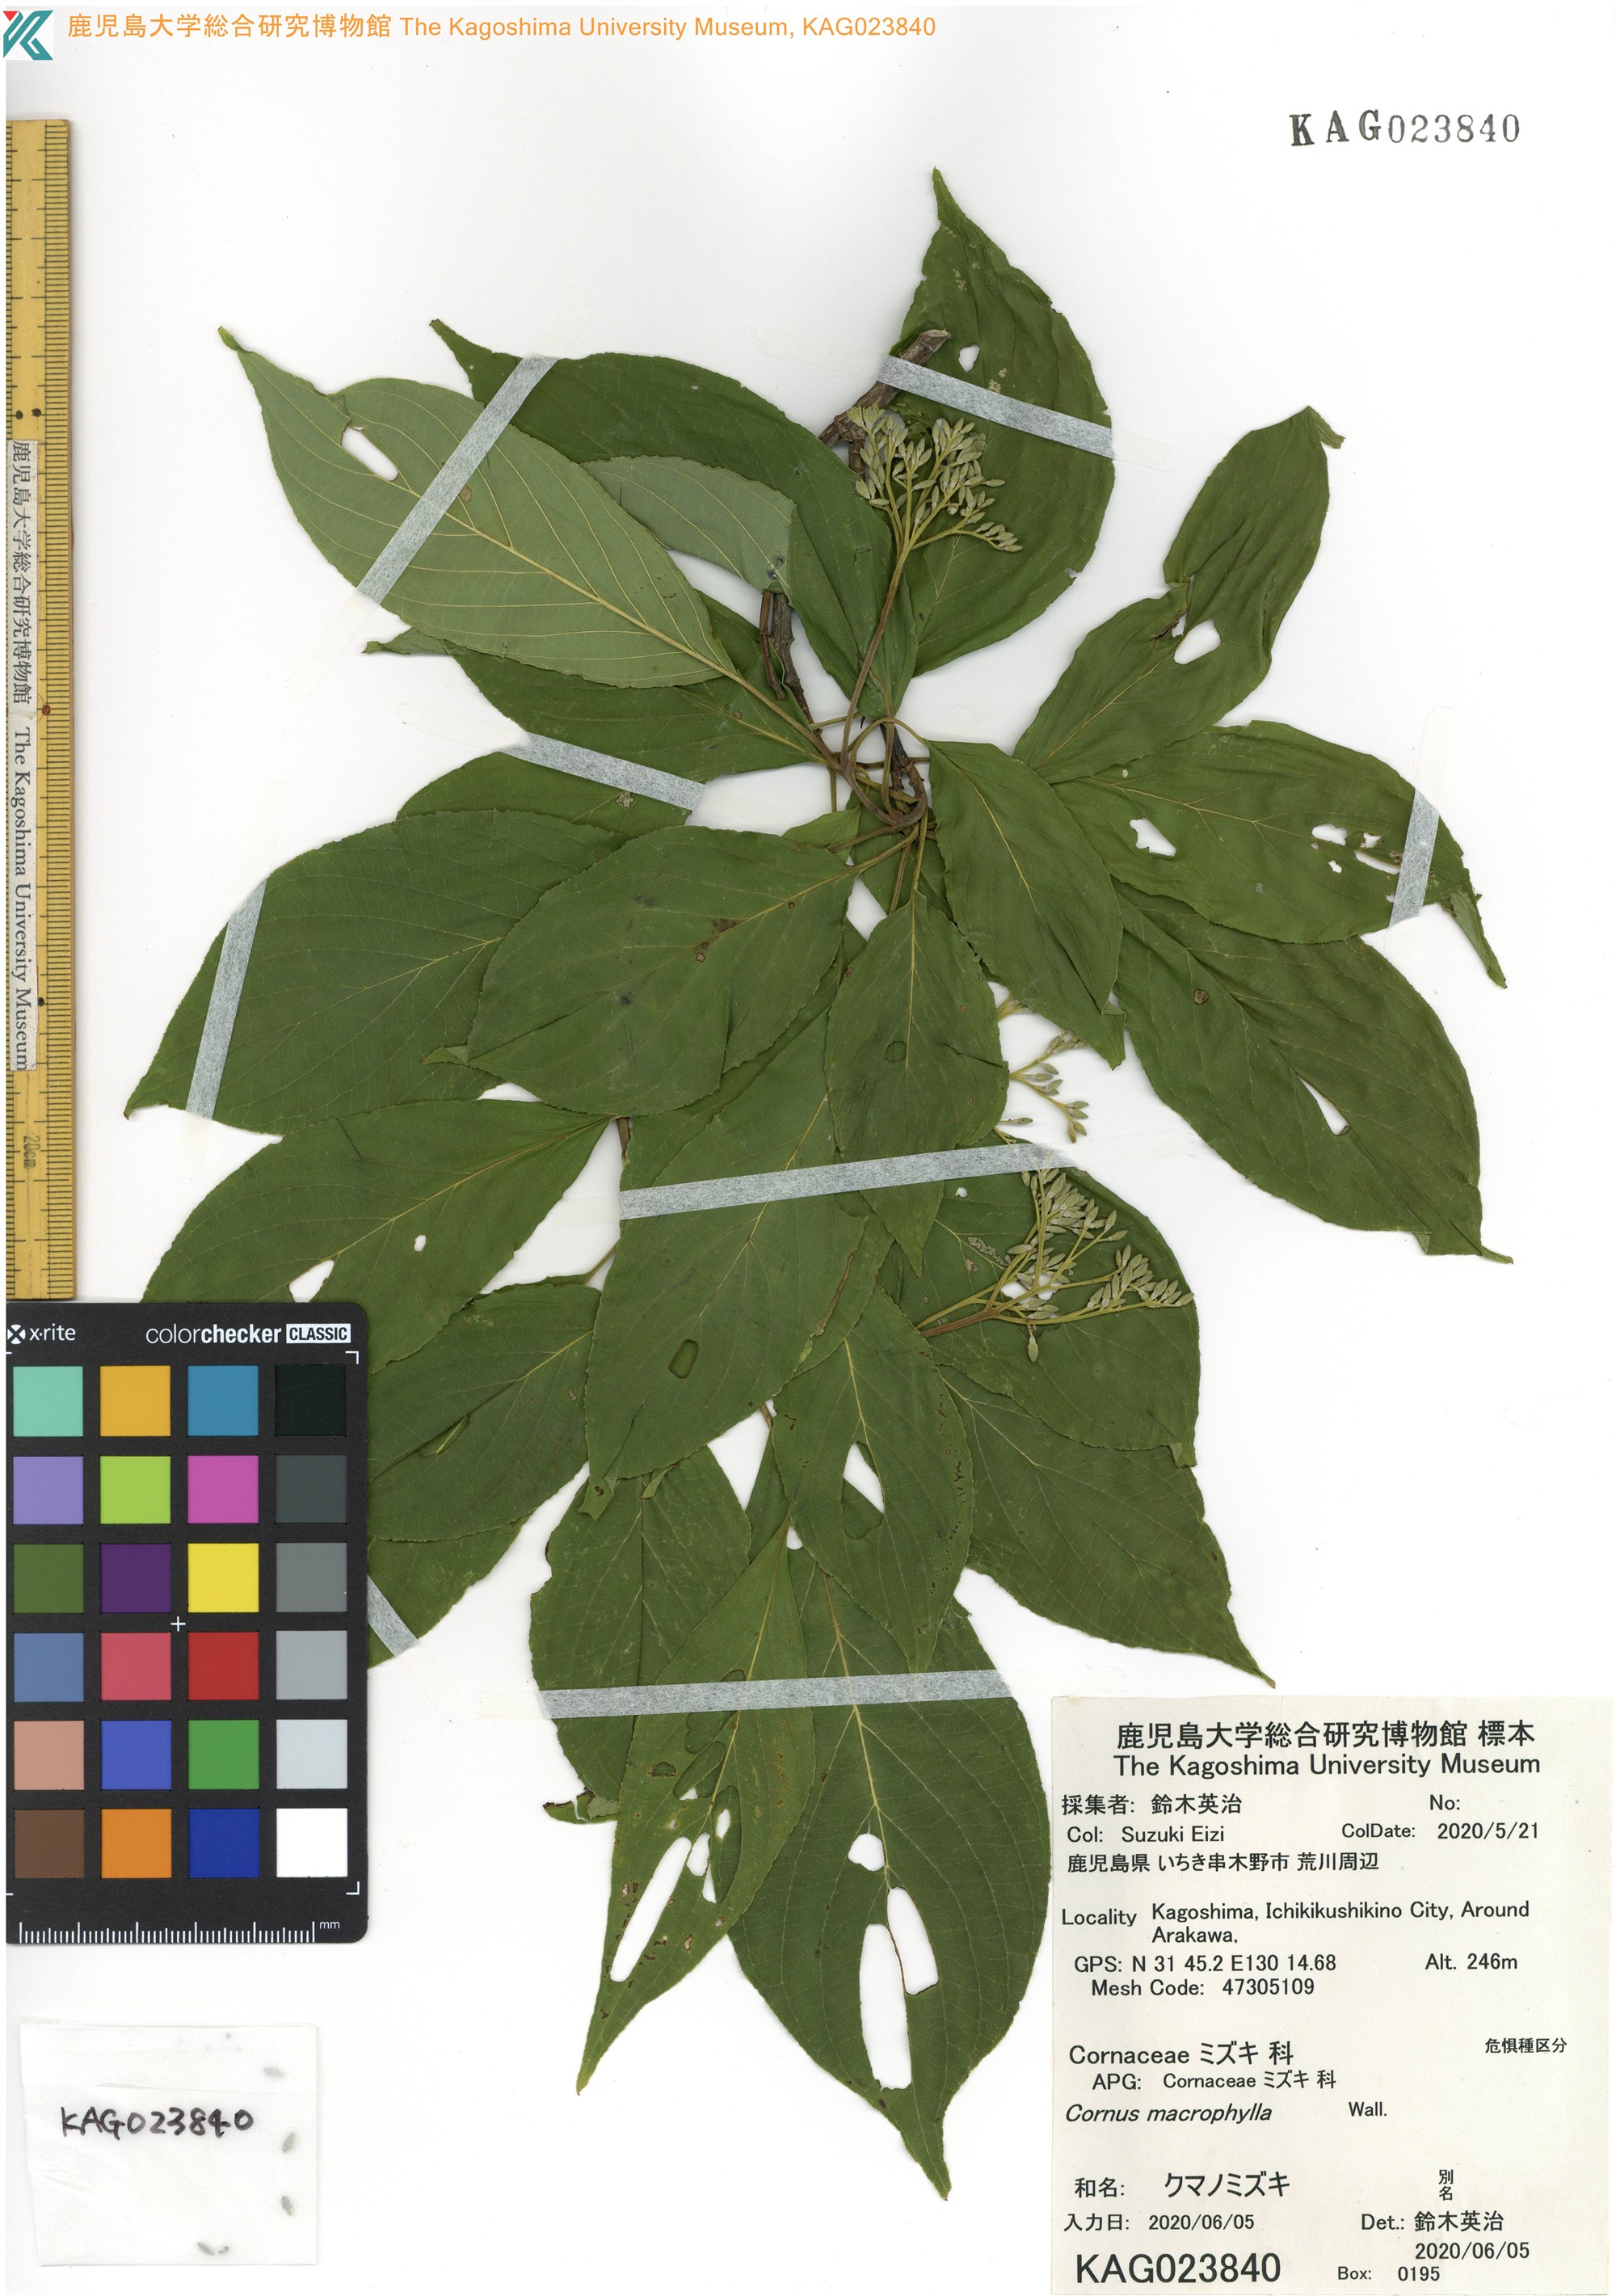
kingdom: Plantae
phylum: Tracheophyta
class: Magnoliopsida
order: Cornales
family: Cornaceae
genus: Cornus
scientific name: Cornus macrophylla
